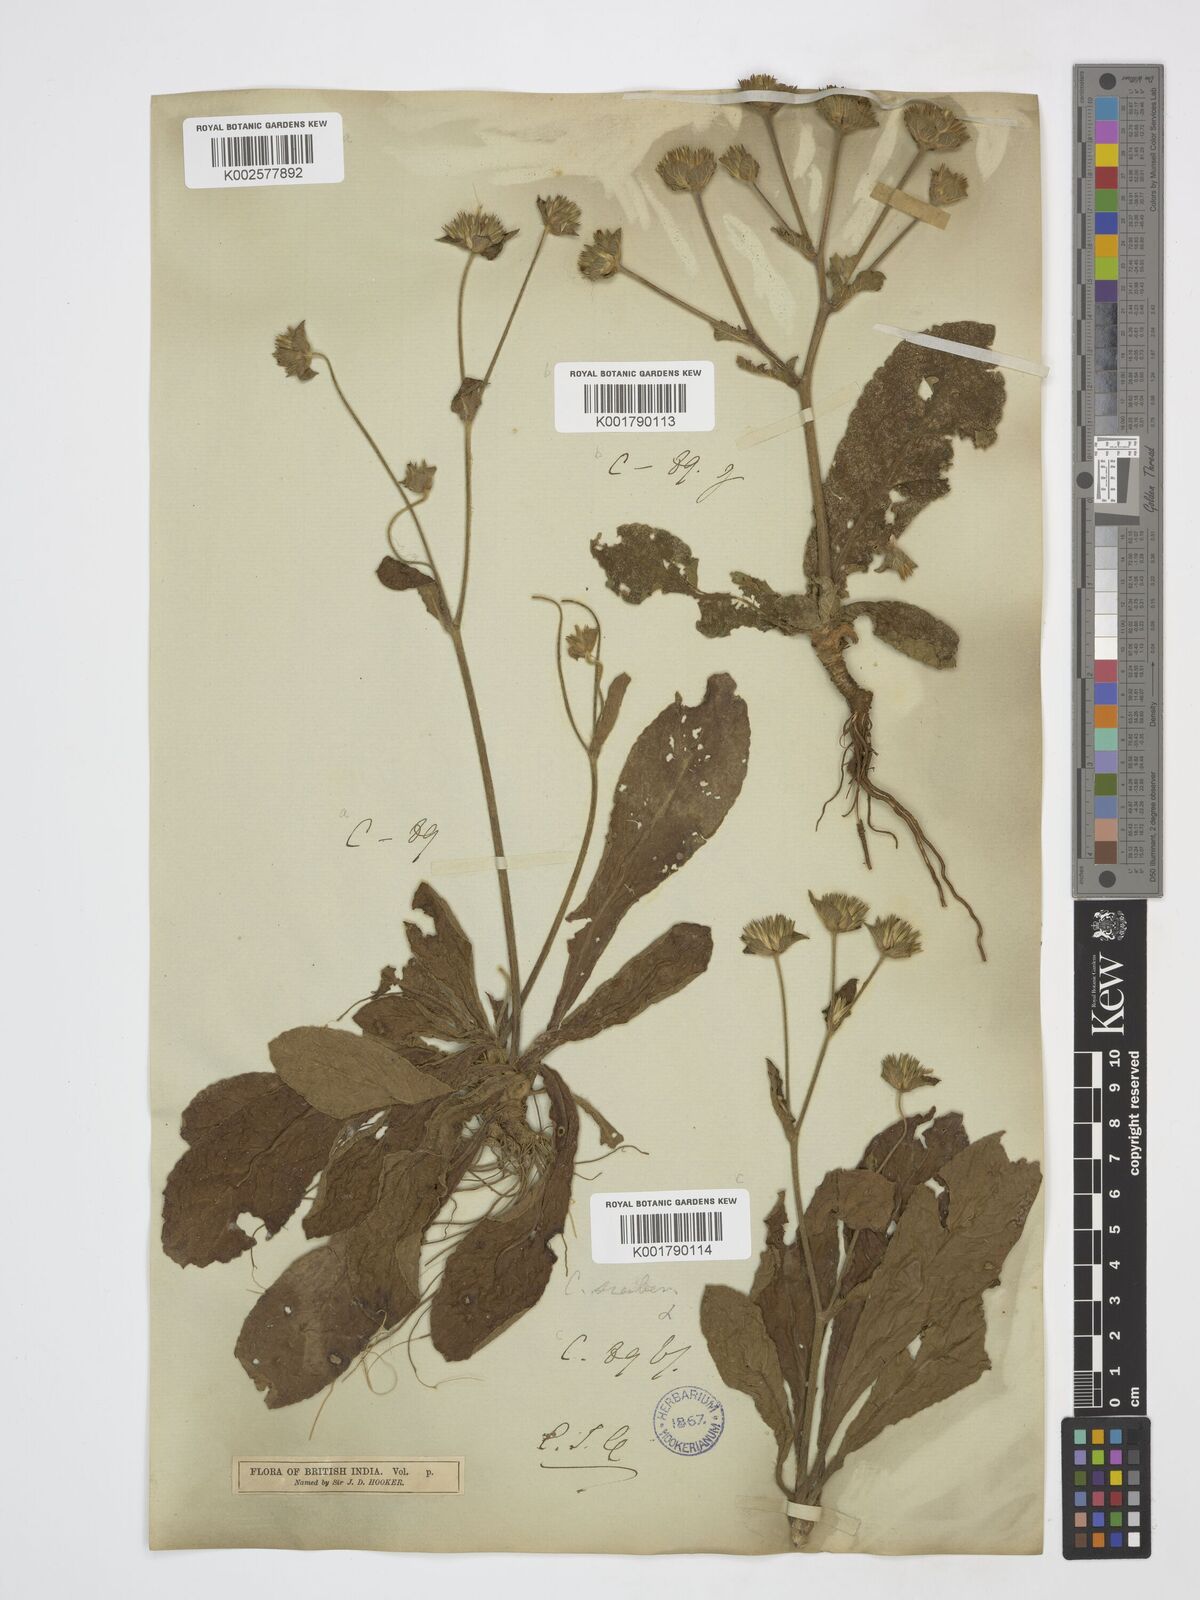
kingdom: Plantae
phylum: Tracheophyta
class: Magnoliopsida
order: Asterales
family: Asteraceae
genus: Elephantopus
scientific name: Elephantopus scaber
